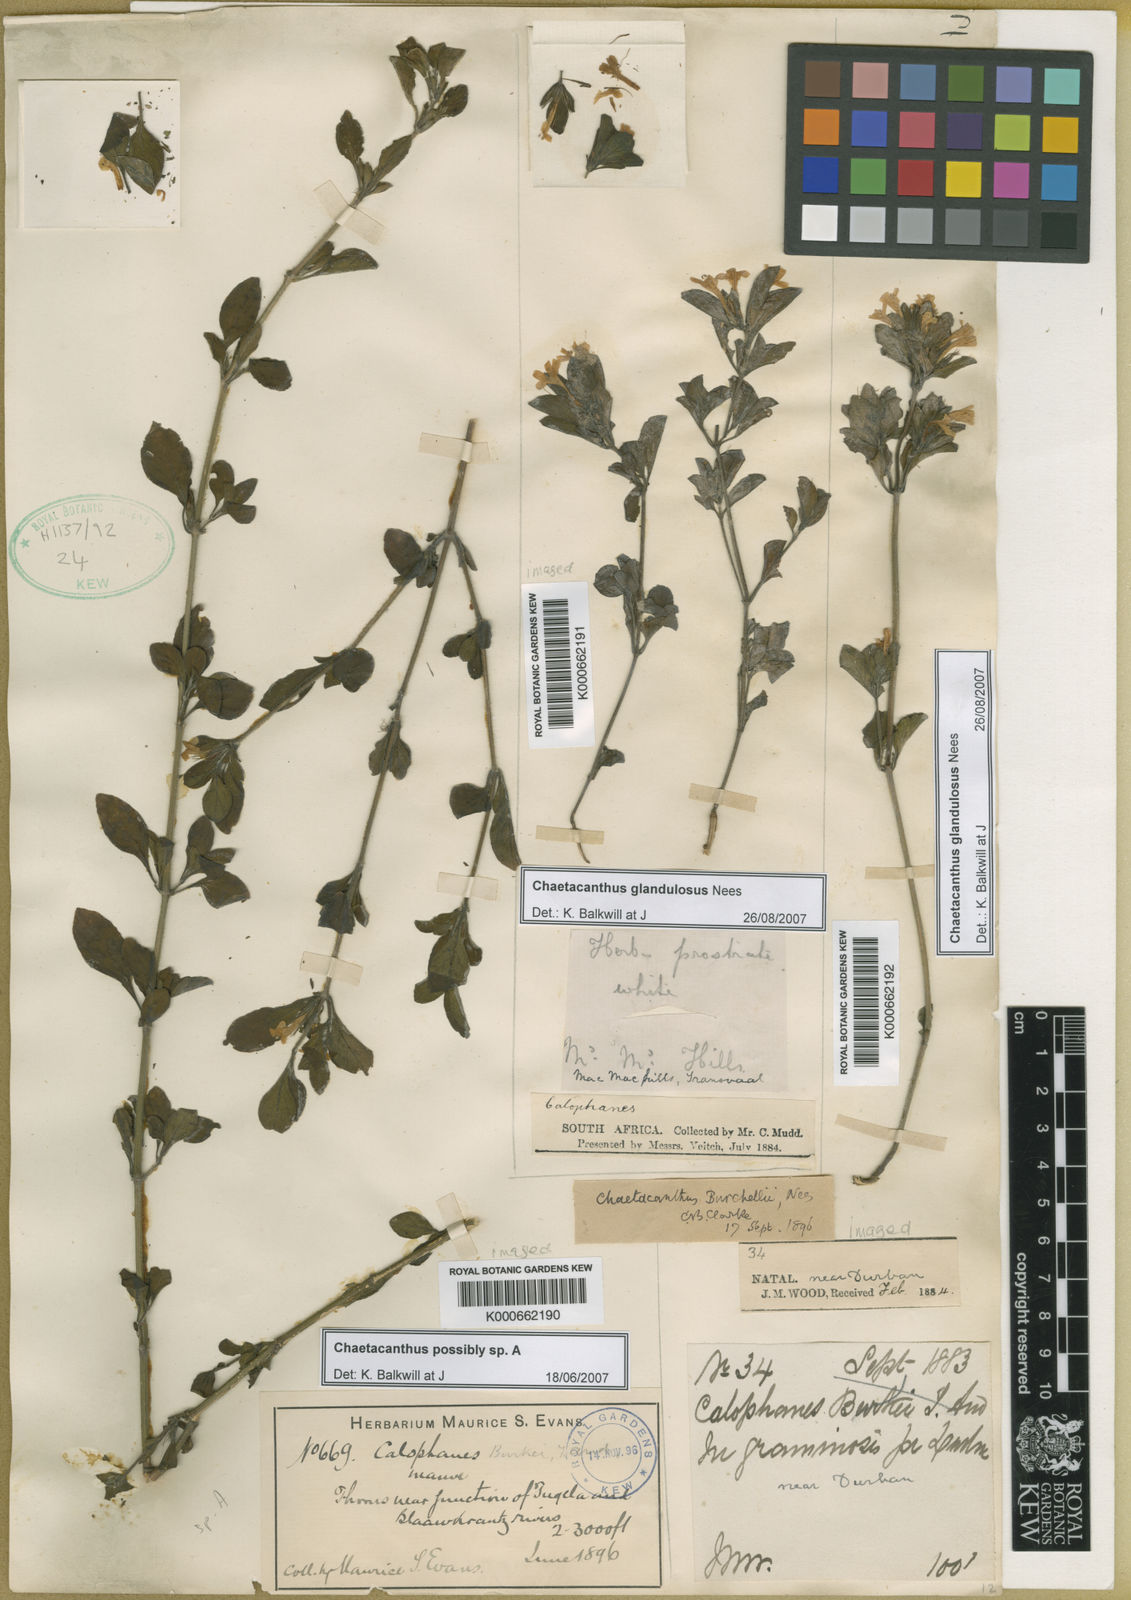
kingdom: Plantae
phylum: Tracheophyta
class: Magnoliopsida
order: Lamiales
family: Acanthaceae
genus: Dyschoriste
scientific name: Dyschoriste setigera
